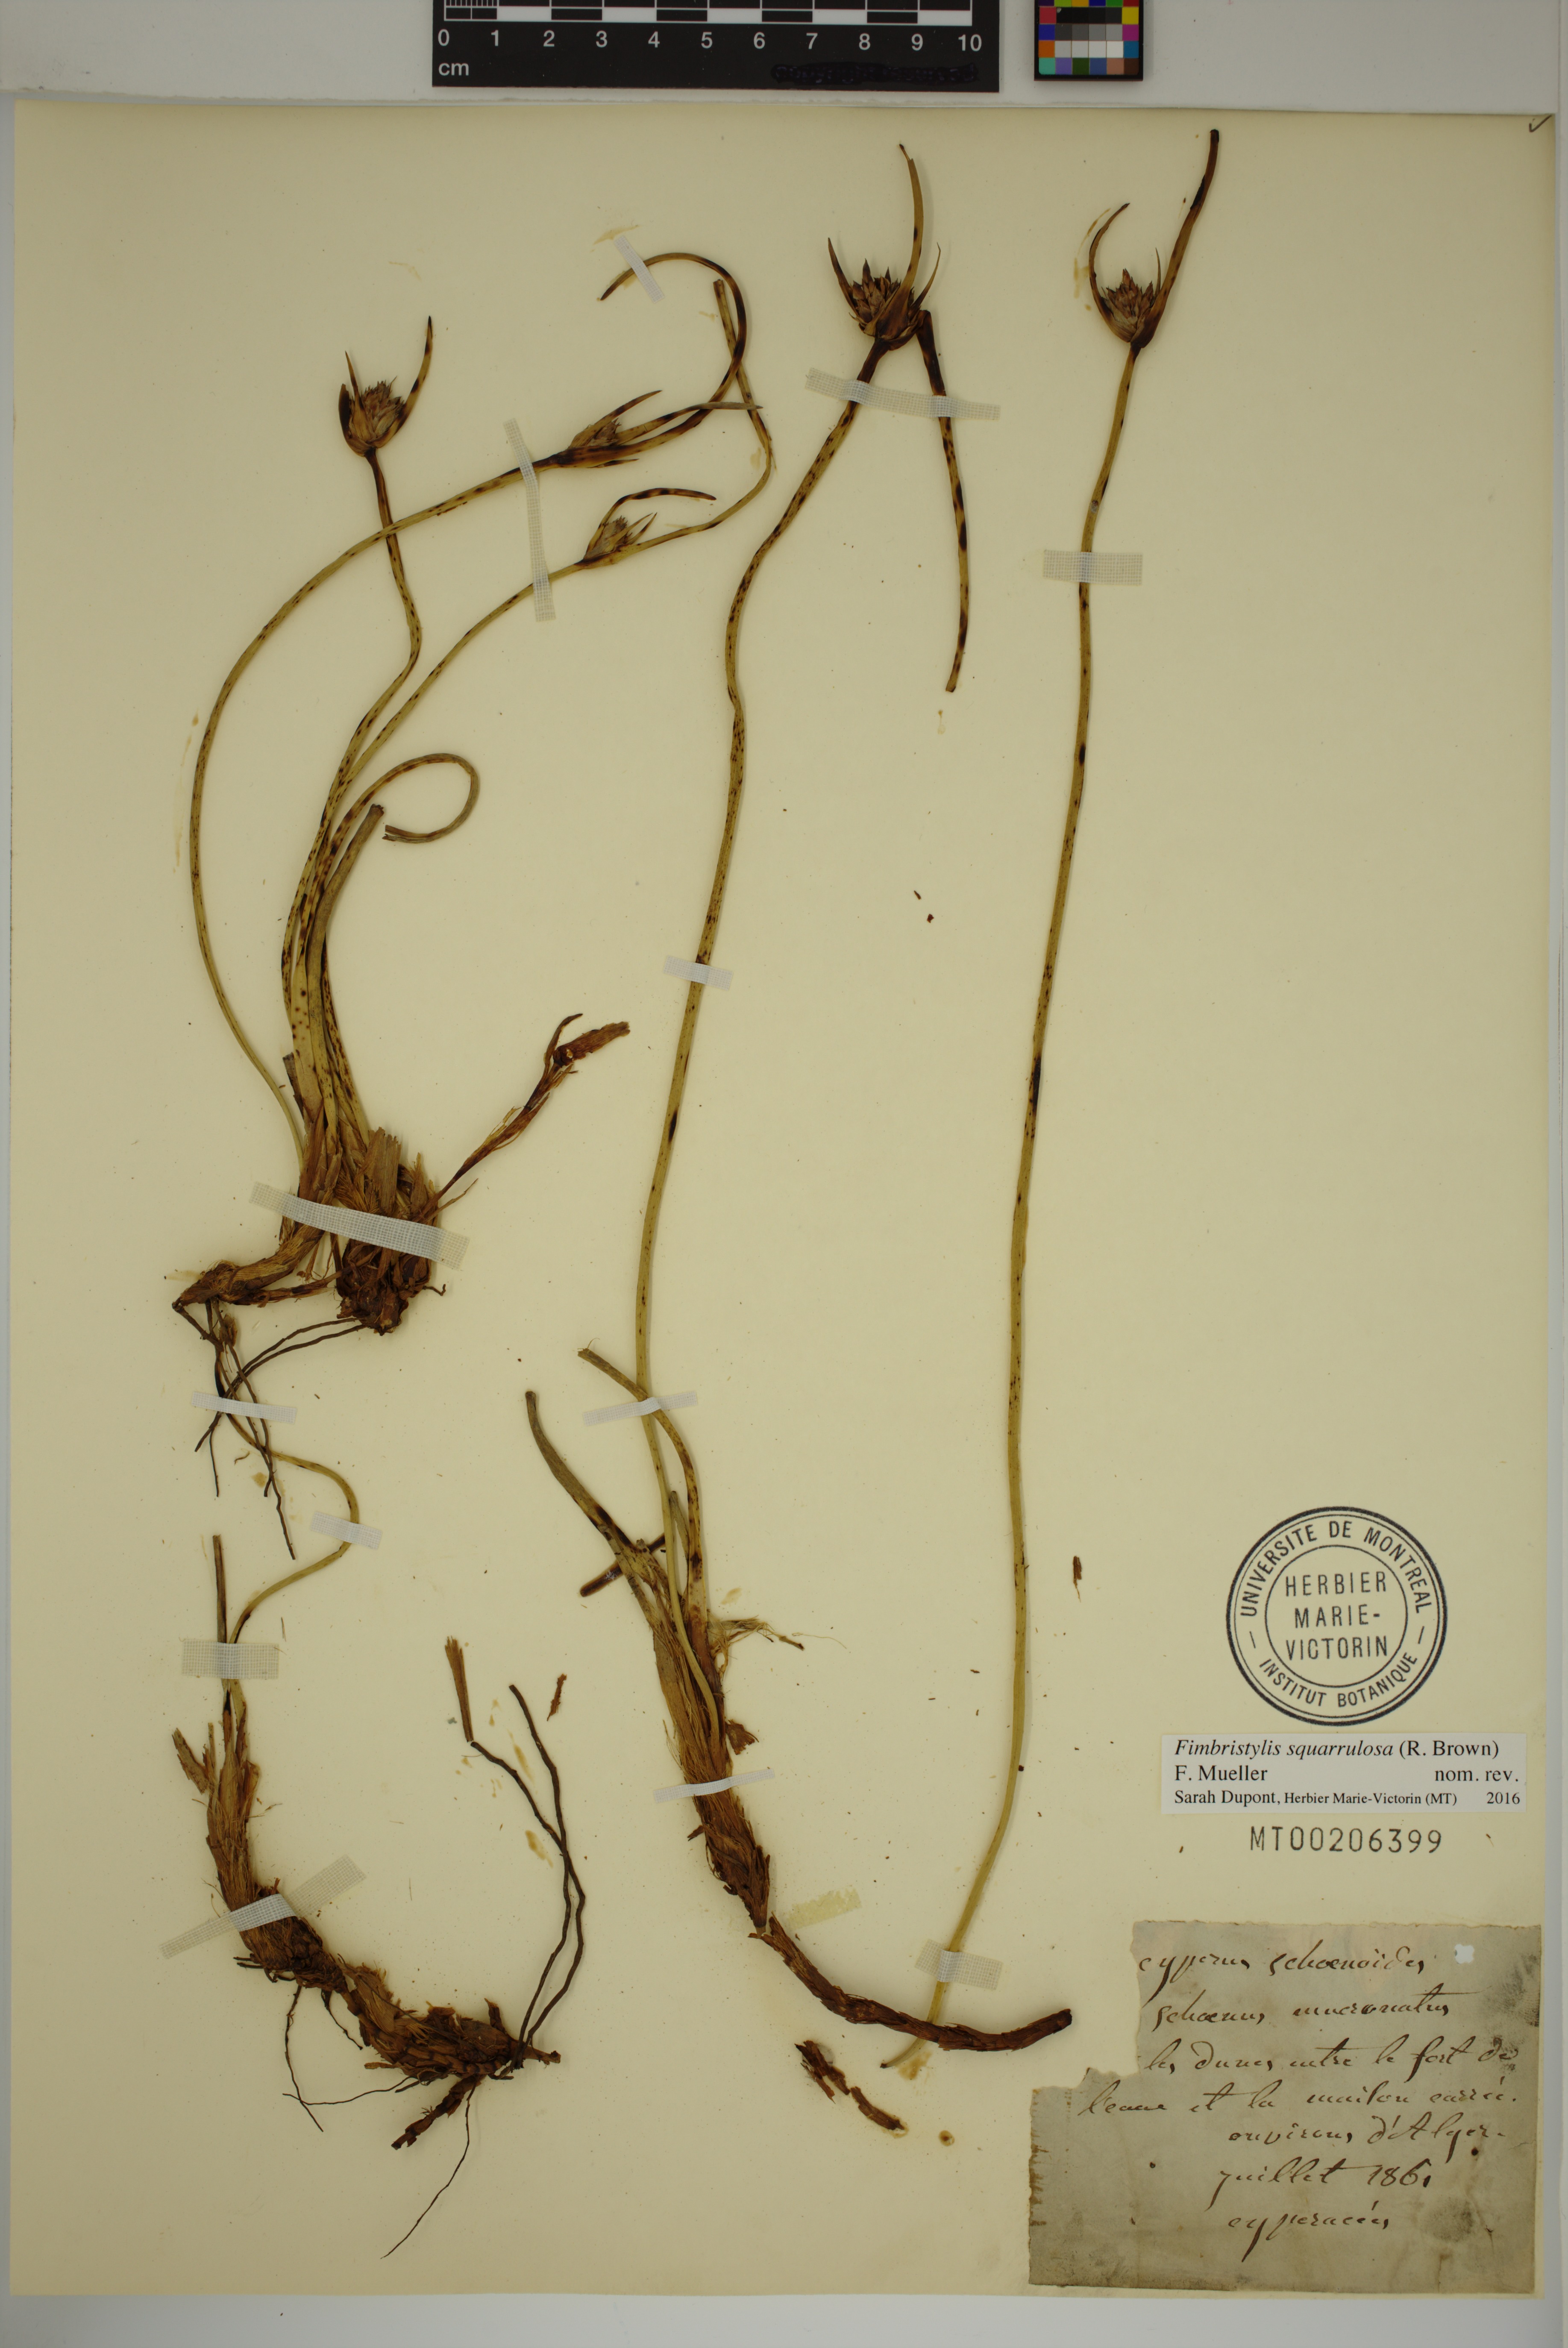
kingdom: Plantae
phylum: Tracheophyta
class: Liliopsida
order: Poales
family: Cyperaceae
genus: Abildgaardia
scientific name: Abildgaardia schoenoides
